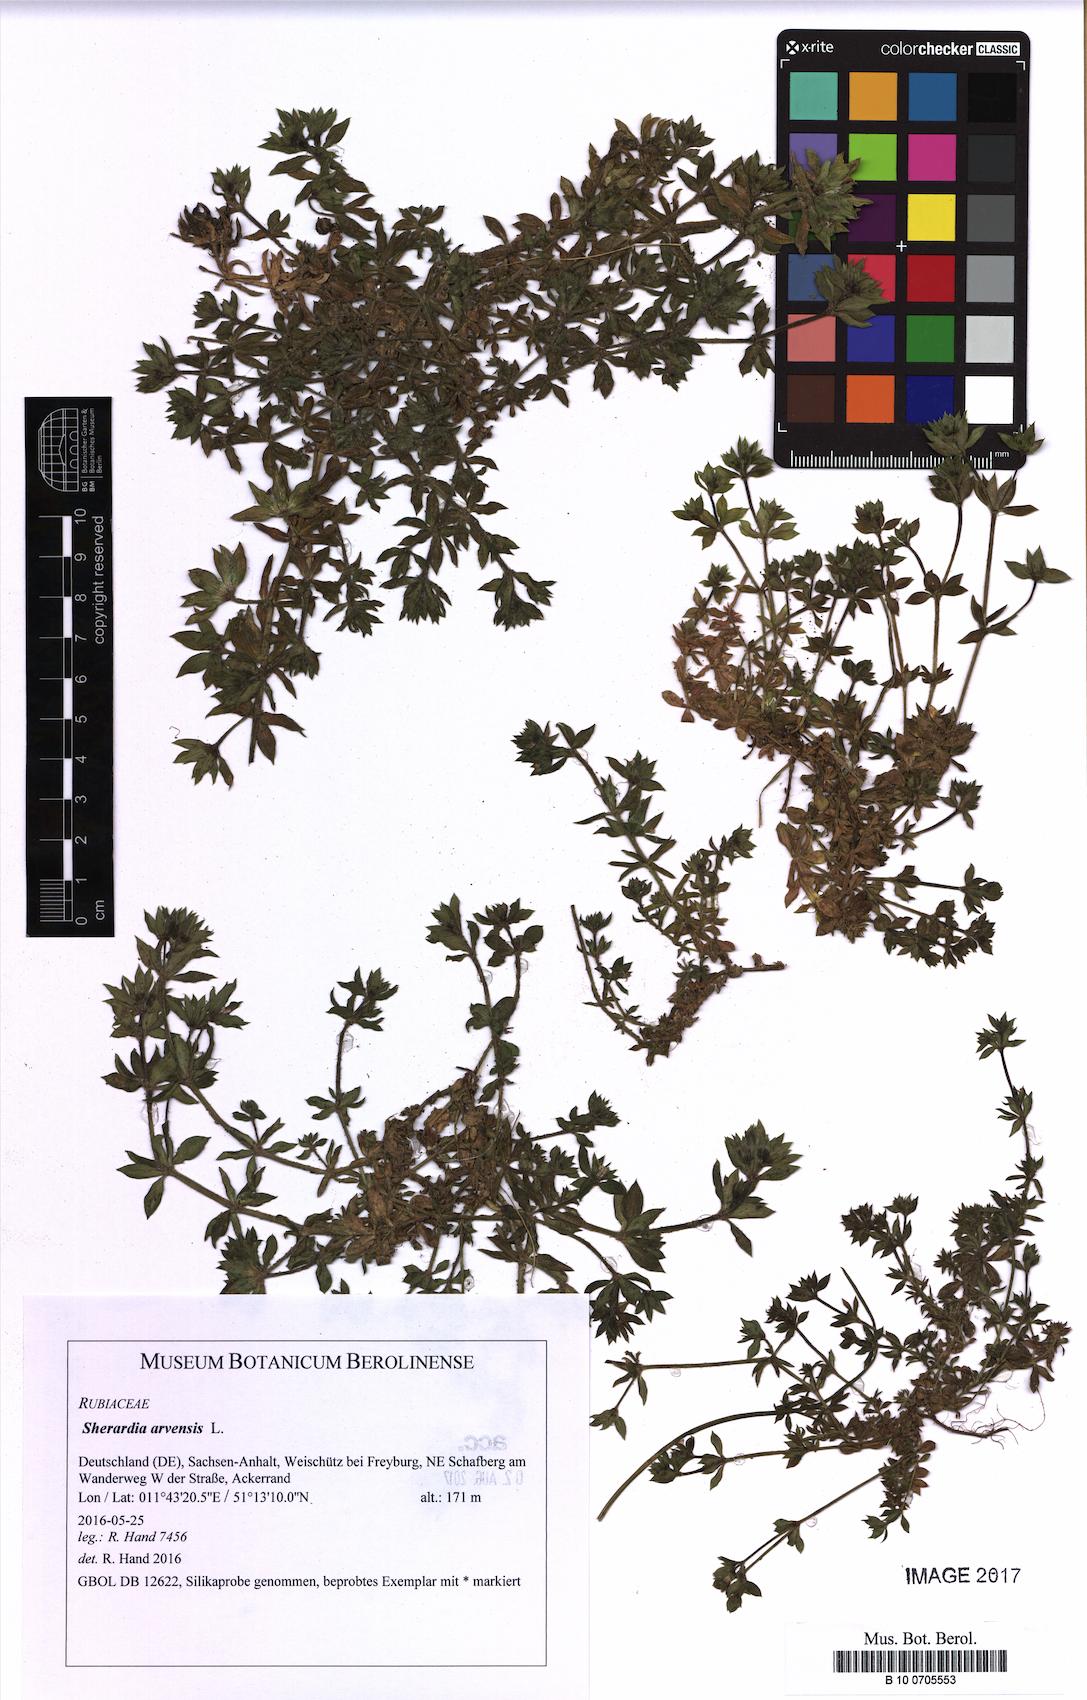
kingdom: Plantae
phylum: Tracheophyta
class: Magnoliopsida
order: Gentianales
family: Rubiaceae
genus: Sherardia
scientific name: Sherardia arvensis
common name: Field madder
